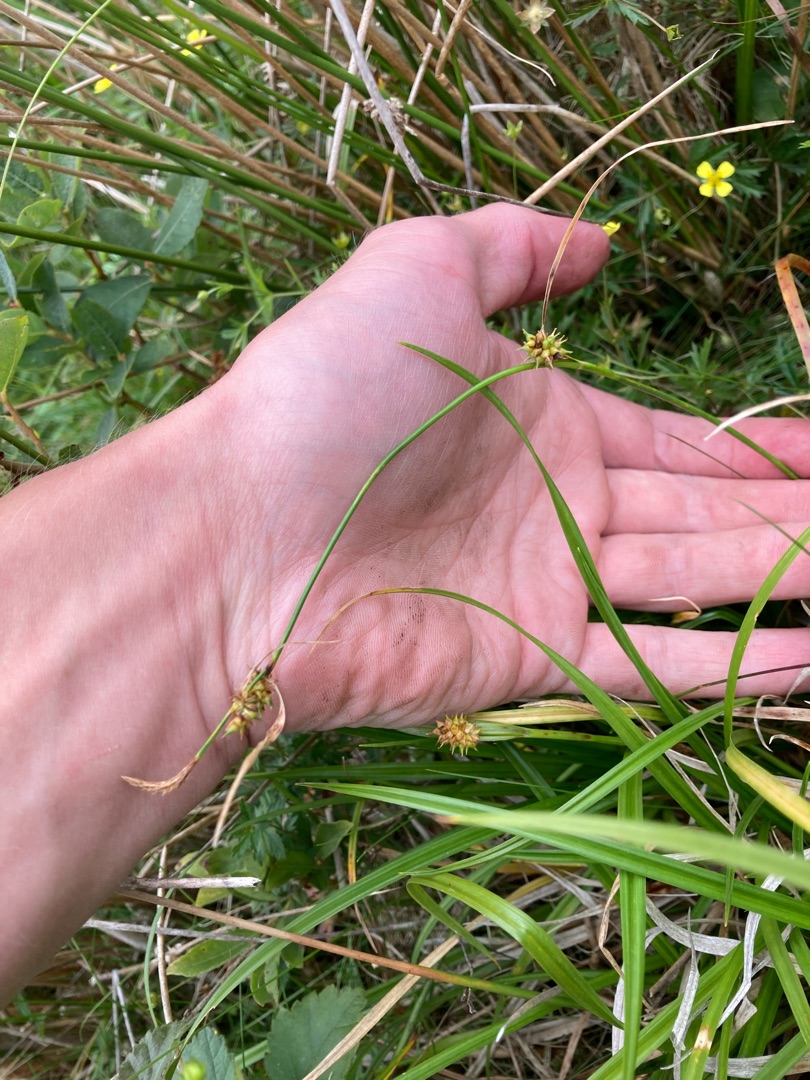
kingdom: Plantae
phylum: Tracheophyta
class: Liliopsida
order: Poales
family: Cyperaceae
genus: Carex
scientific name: Carex demissa
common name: Grøn star
